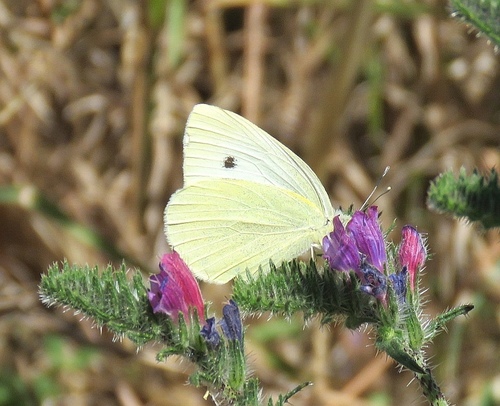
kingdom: Animalia
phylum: Arthropoda
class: Insecta
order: Lepidoptera
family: Pieridae
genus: Pieris
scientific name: Pieris rapae
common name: Small white
